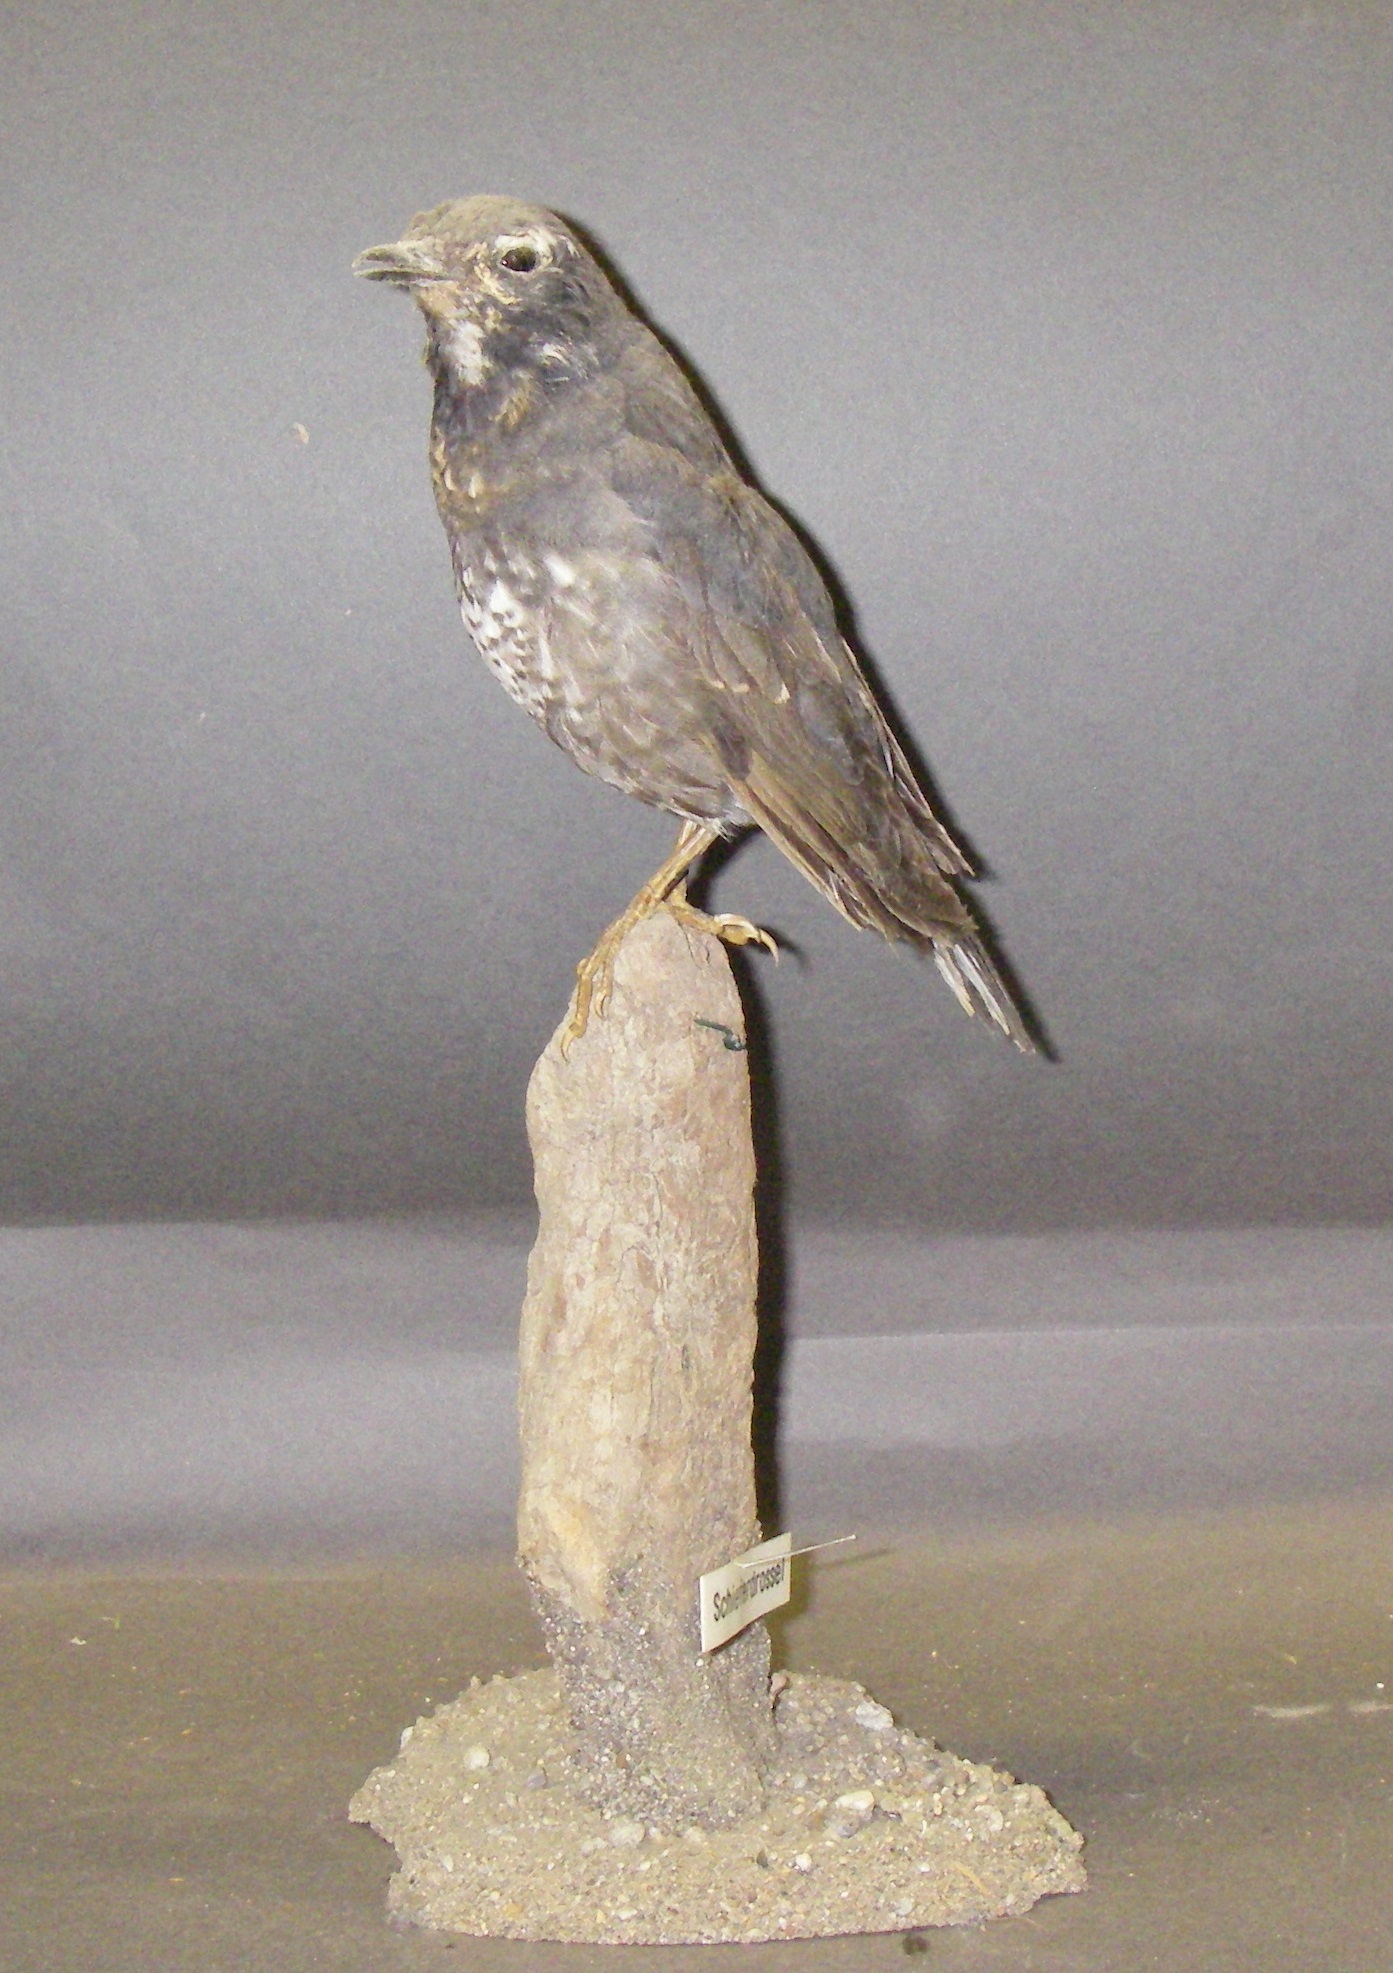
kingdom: Animalia
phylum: Chordata
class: Aves
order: Passeriformes
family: Turdidae
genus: Geokichla
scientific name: Geokichla sibirica
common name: Siberian thrush
